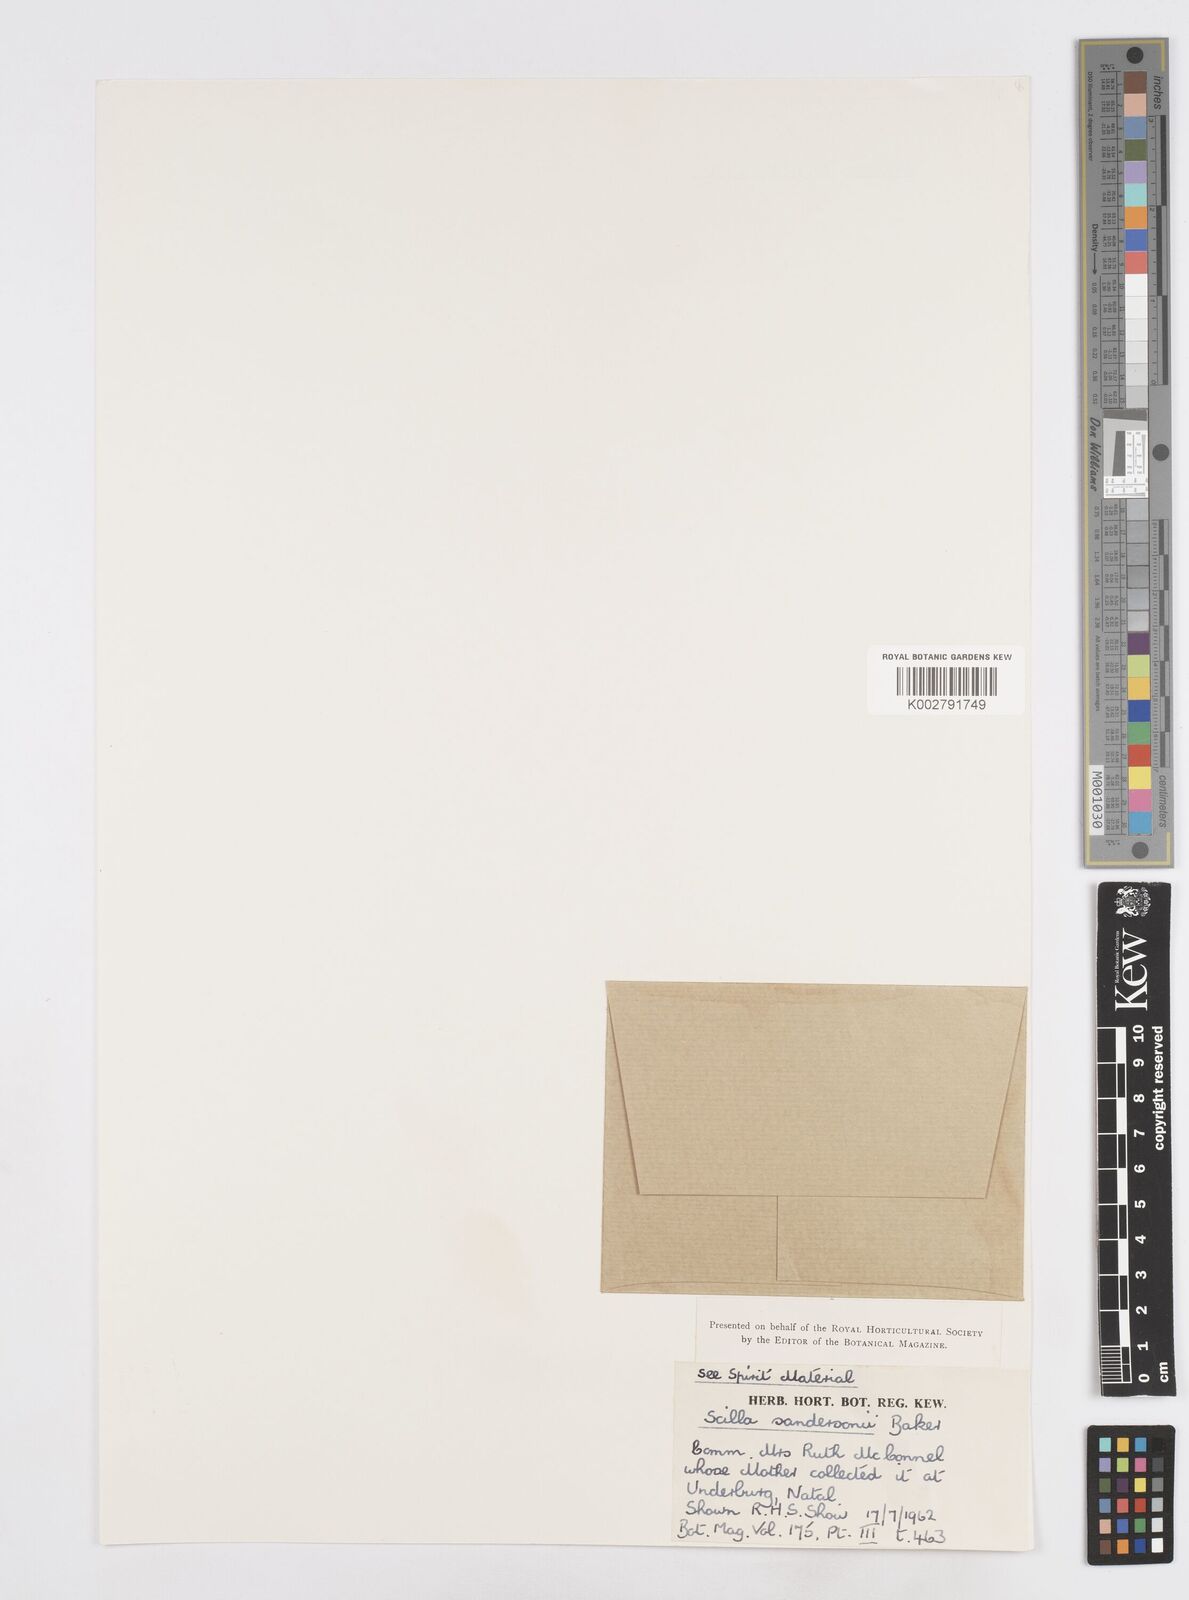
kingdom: Plantae
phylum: Tracheophyta
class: Liliopsida
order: Asparagales
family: Asparagaceae
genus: Ledebouria
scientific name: Ledebouria sandersonii
